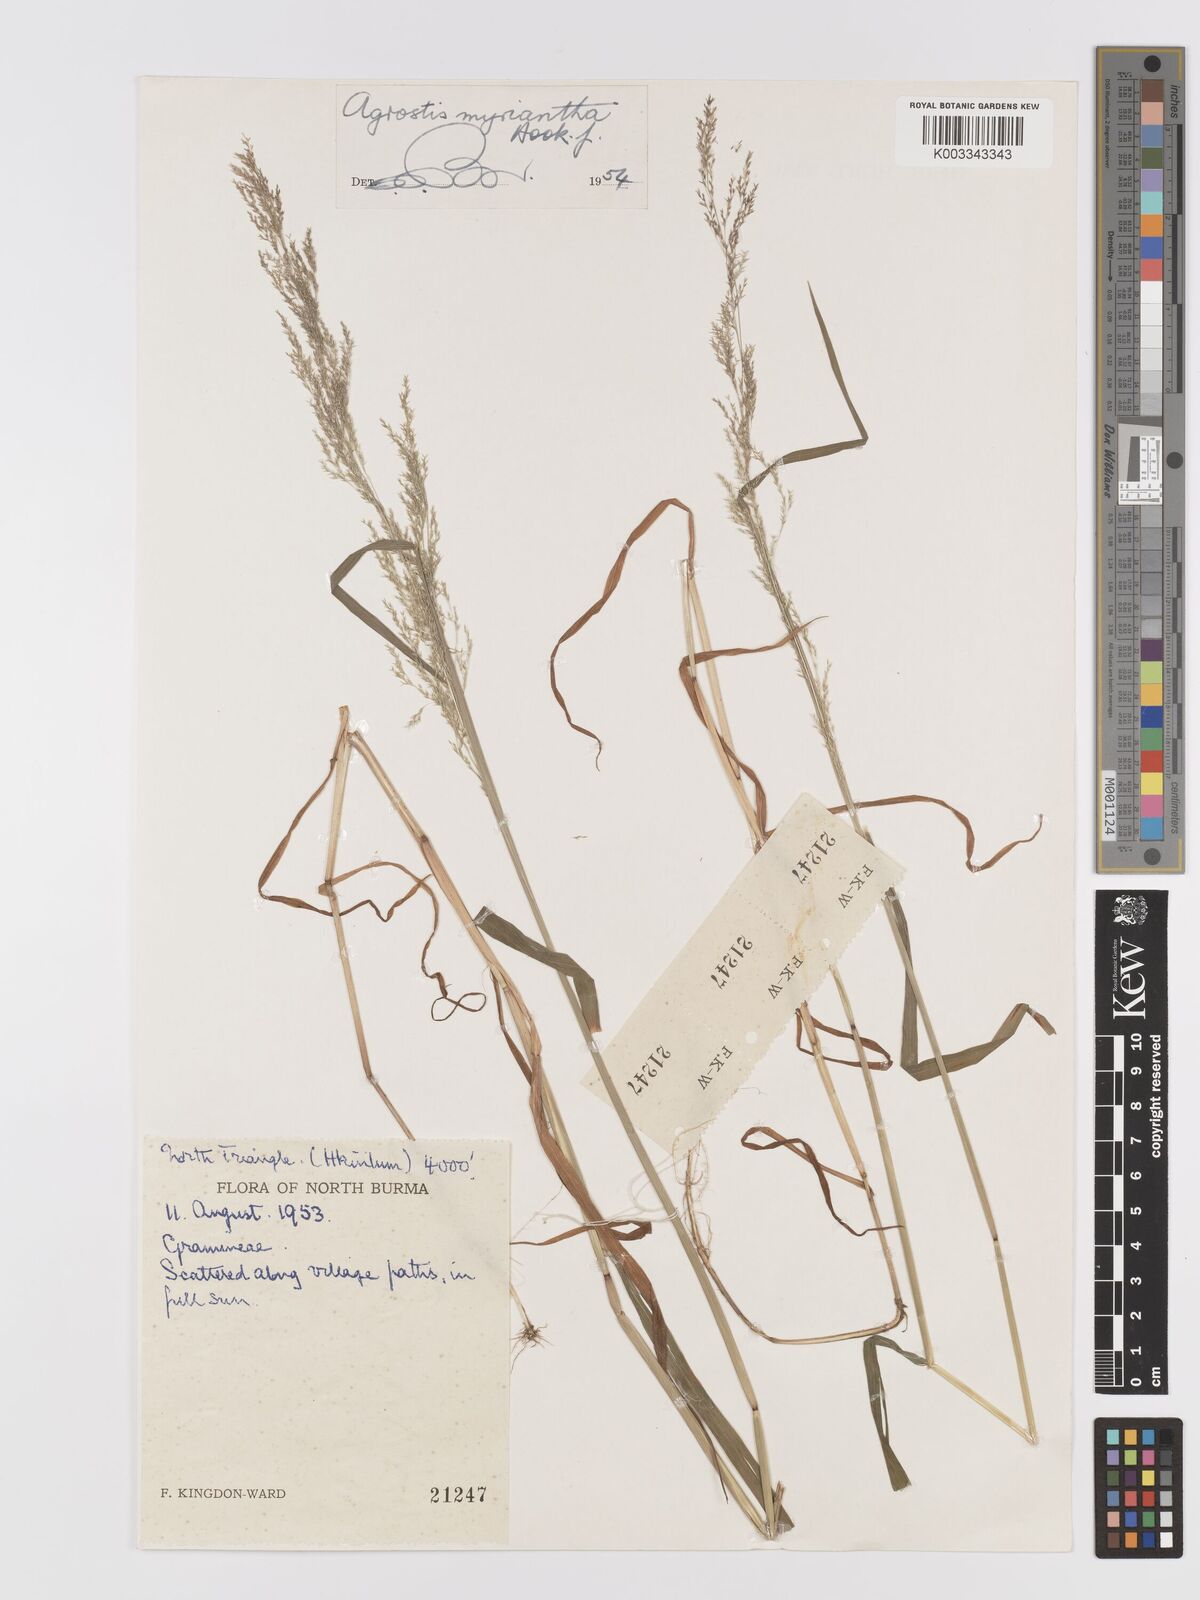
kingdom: Plantae
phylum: Tracheophyta
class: Liliopsida
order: Poales
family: Poaceae
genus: Agrostis
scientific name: Agrostis micrantha
